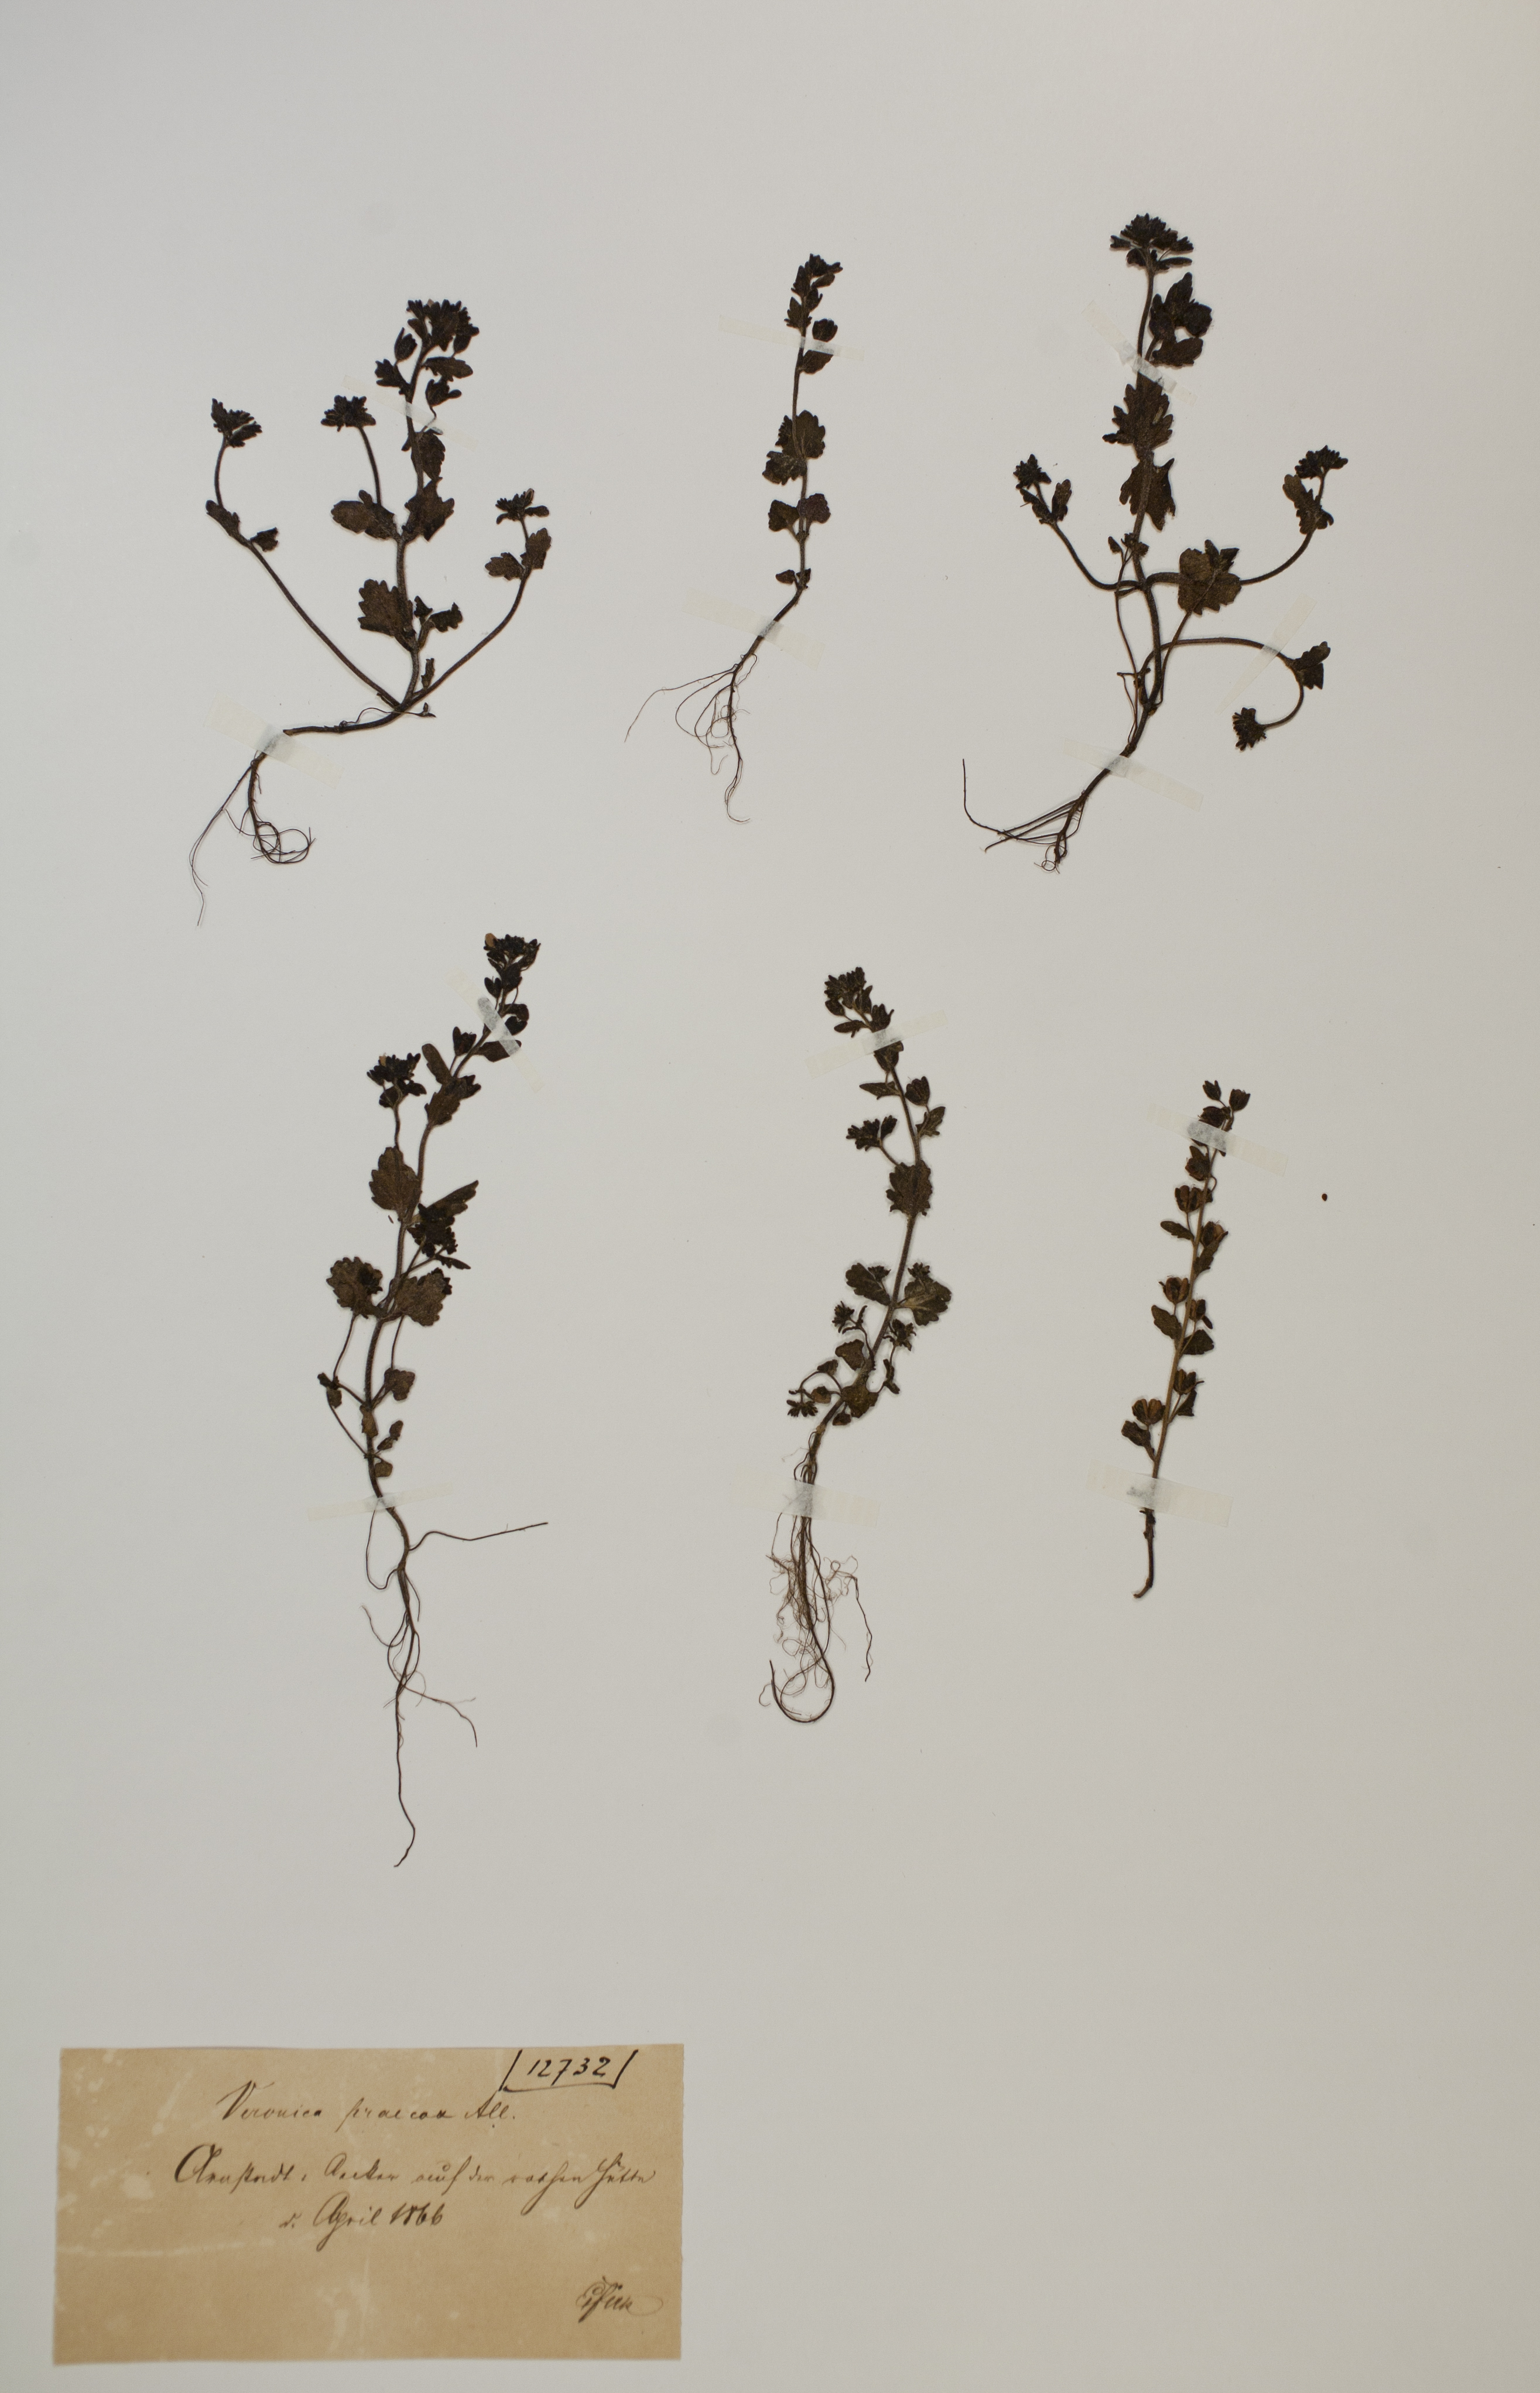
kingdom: Plantae
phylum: Tracheophyta
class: Magnoliopsida
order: Lamiales
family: Plantaginaceae
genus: Veronica
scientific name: Veronica praecox
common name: Breckland speedwell
